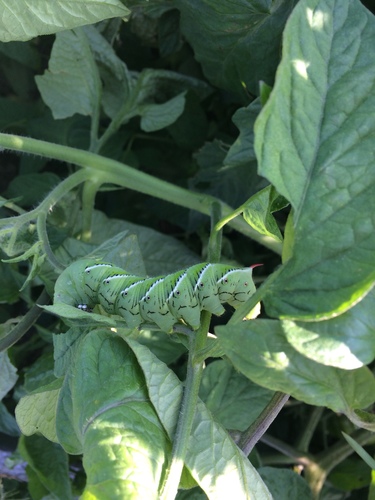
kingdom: Animalia
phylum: Arthropoda
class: Insecta
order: Lepidoptera
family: Sphingidae
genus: Manduca
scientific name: Manduca sexta
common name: Carolina sphinx
